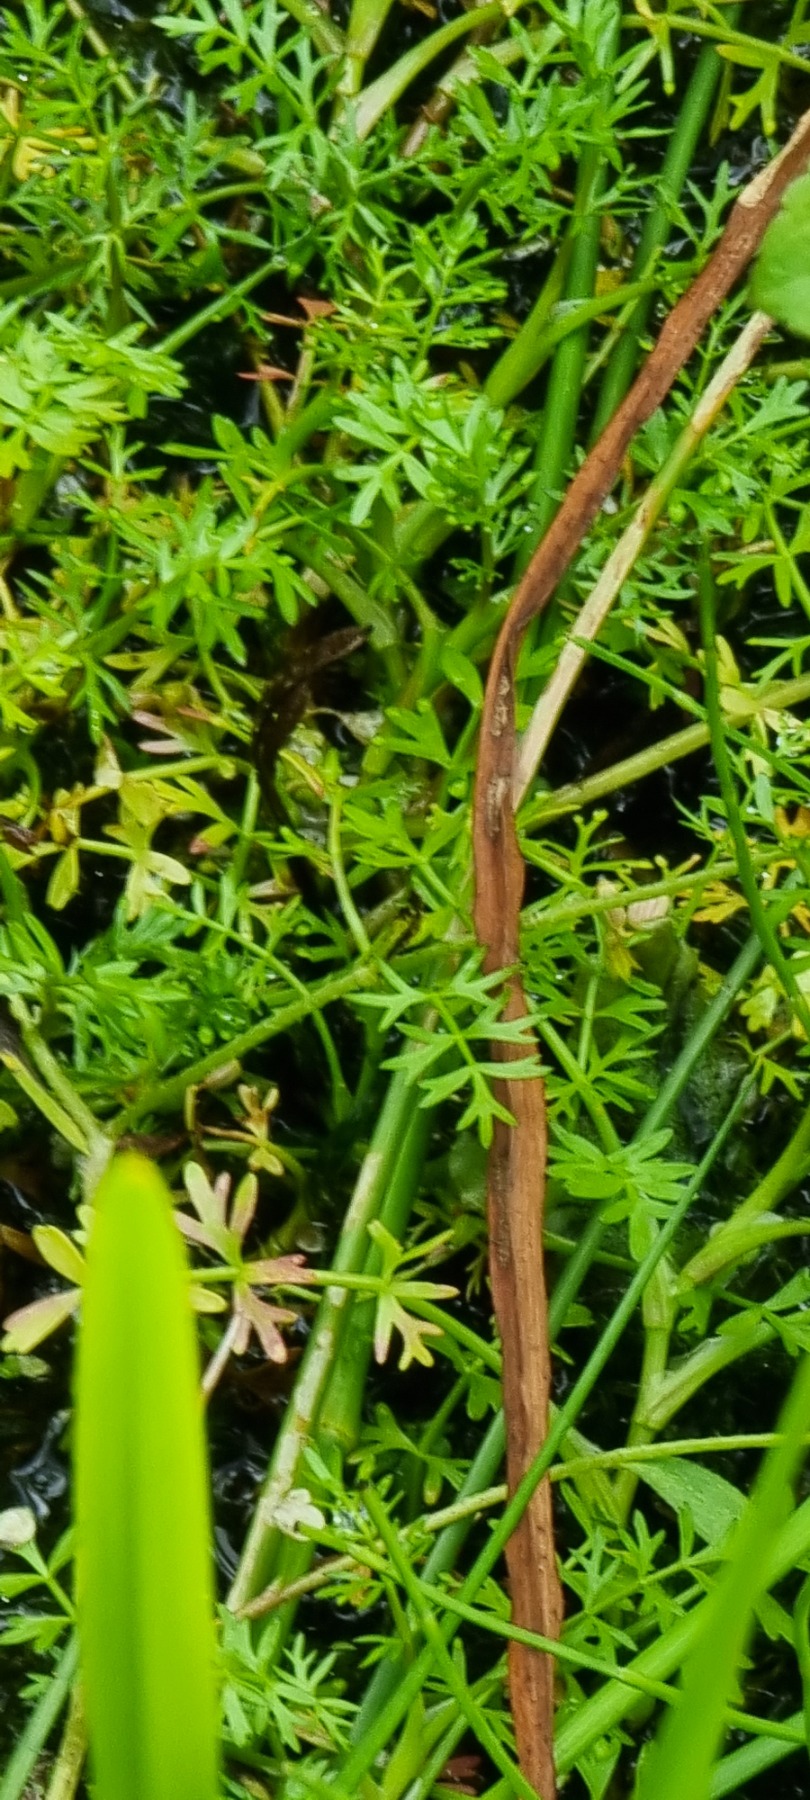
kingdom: Plantae
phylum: Tracheophyta
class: Liliopsida
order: Poales
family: Typhaceae
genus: Sparganium
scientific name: Sparganium erectum
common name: Grenet pindsvineknop
